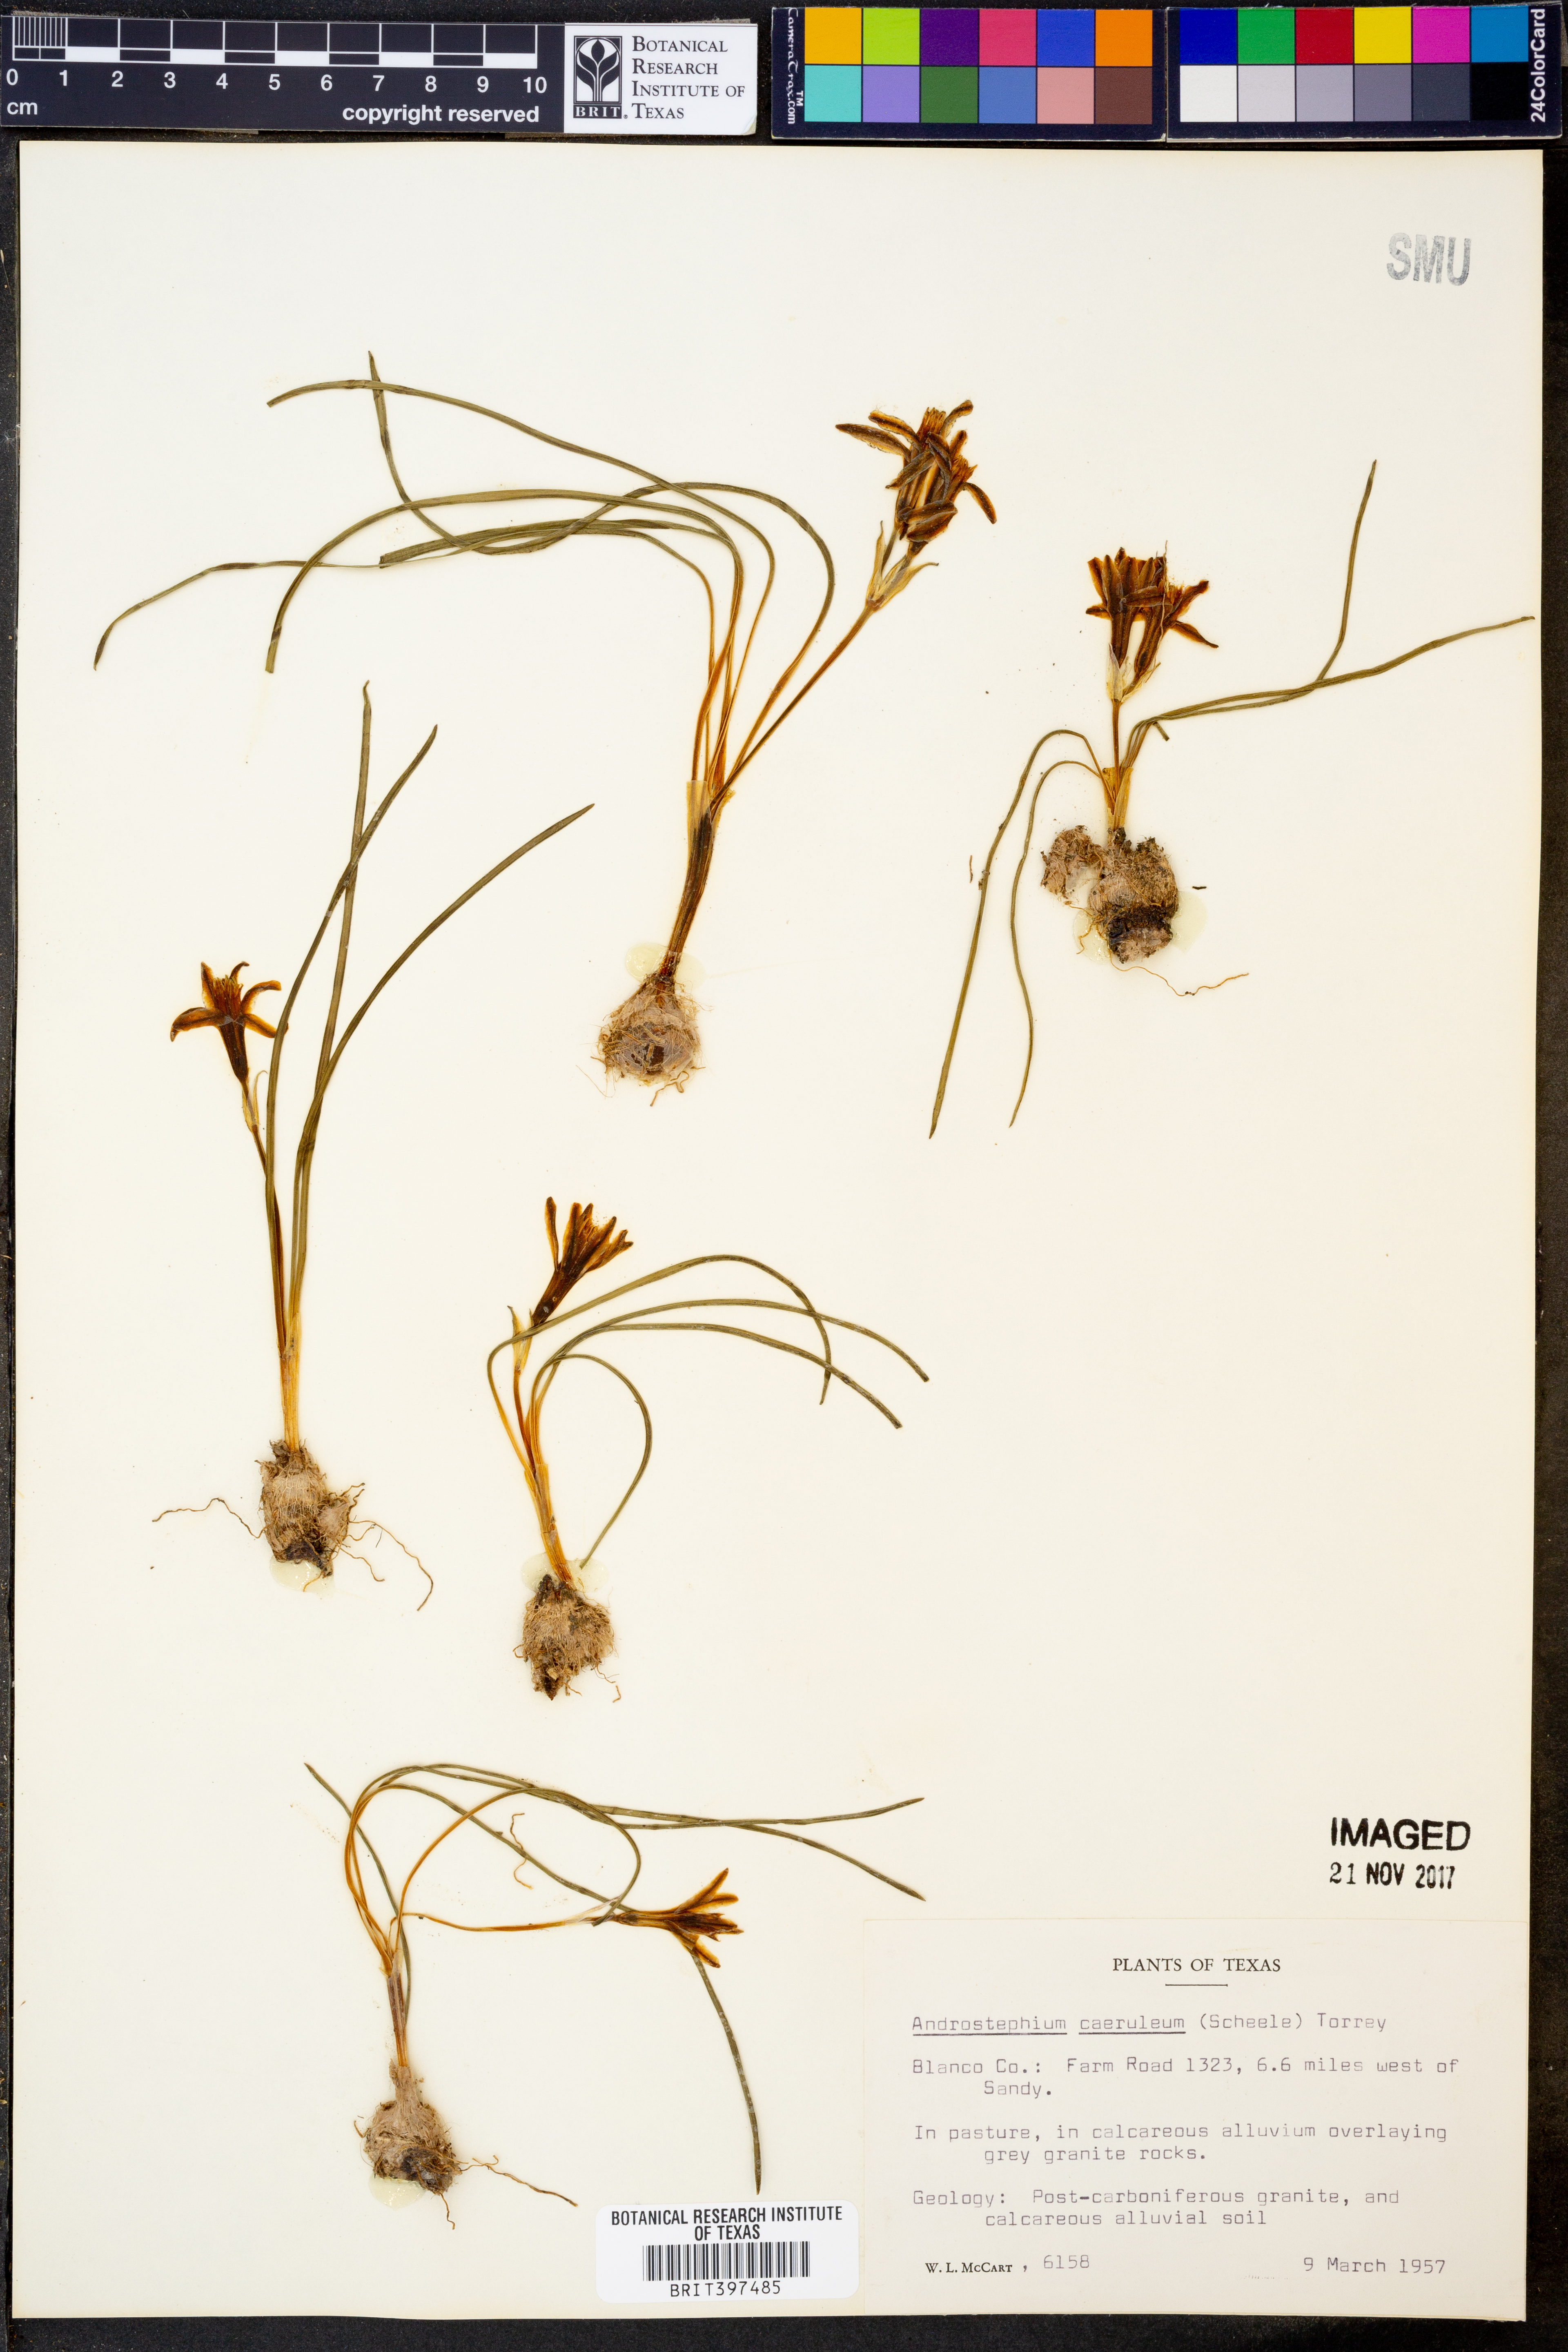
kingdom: Plantae
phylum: Tracheophyta
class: Liliopsida
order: Asparagales
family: Asparagaceae
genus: Androstephium
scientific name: Androstephium caeruleum
